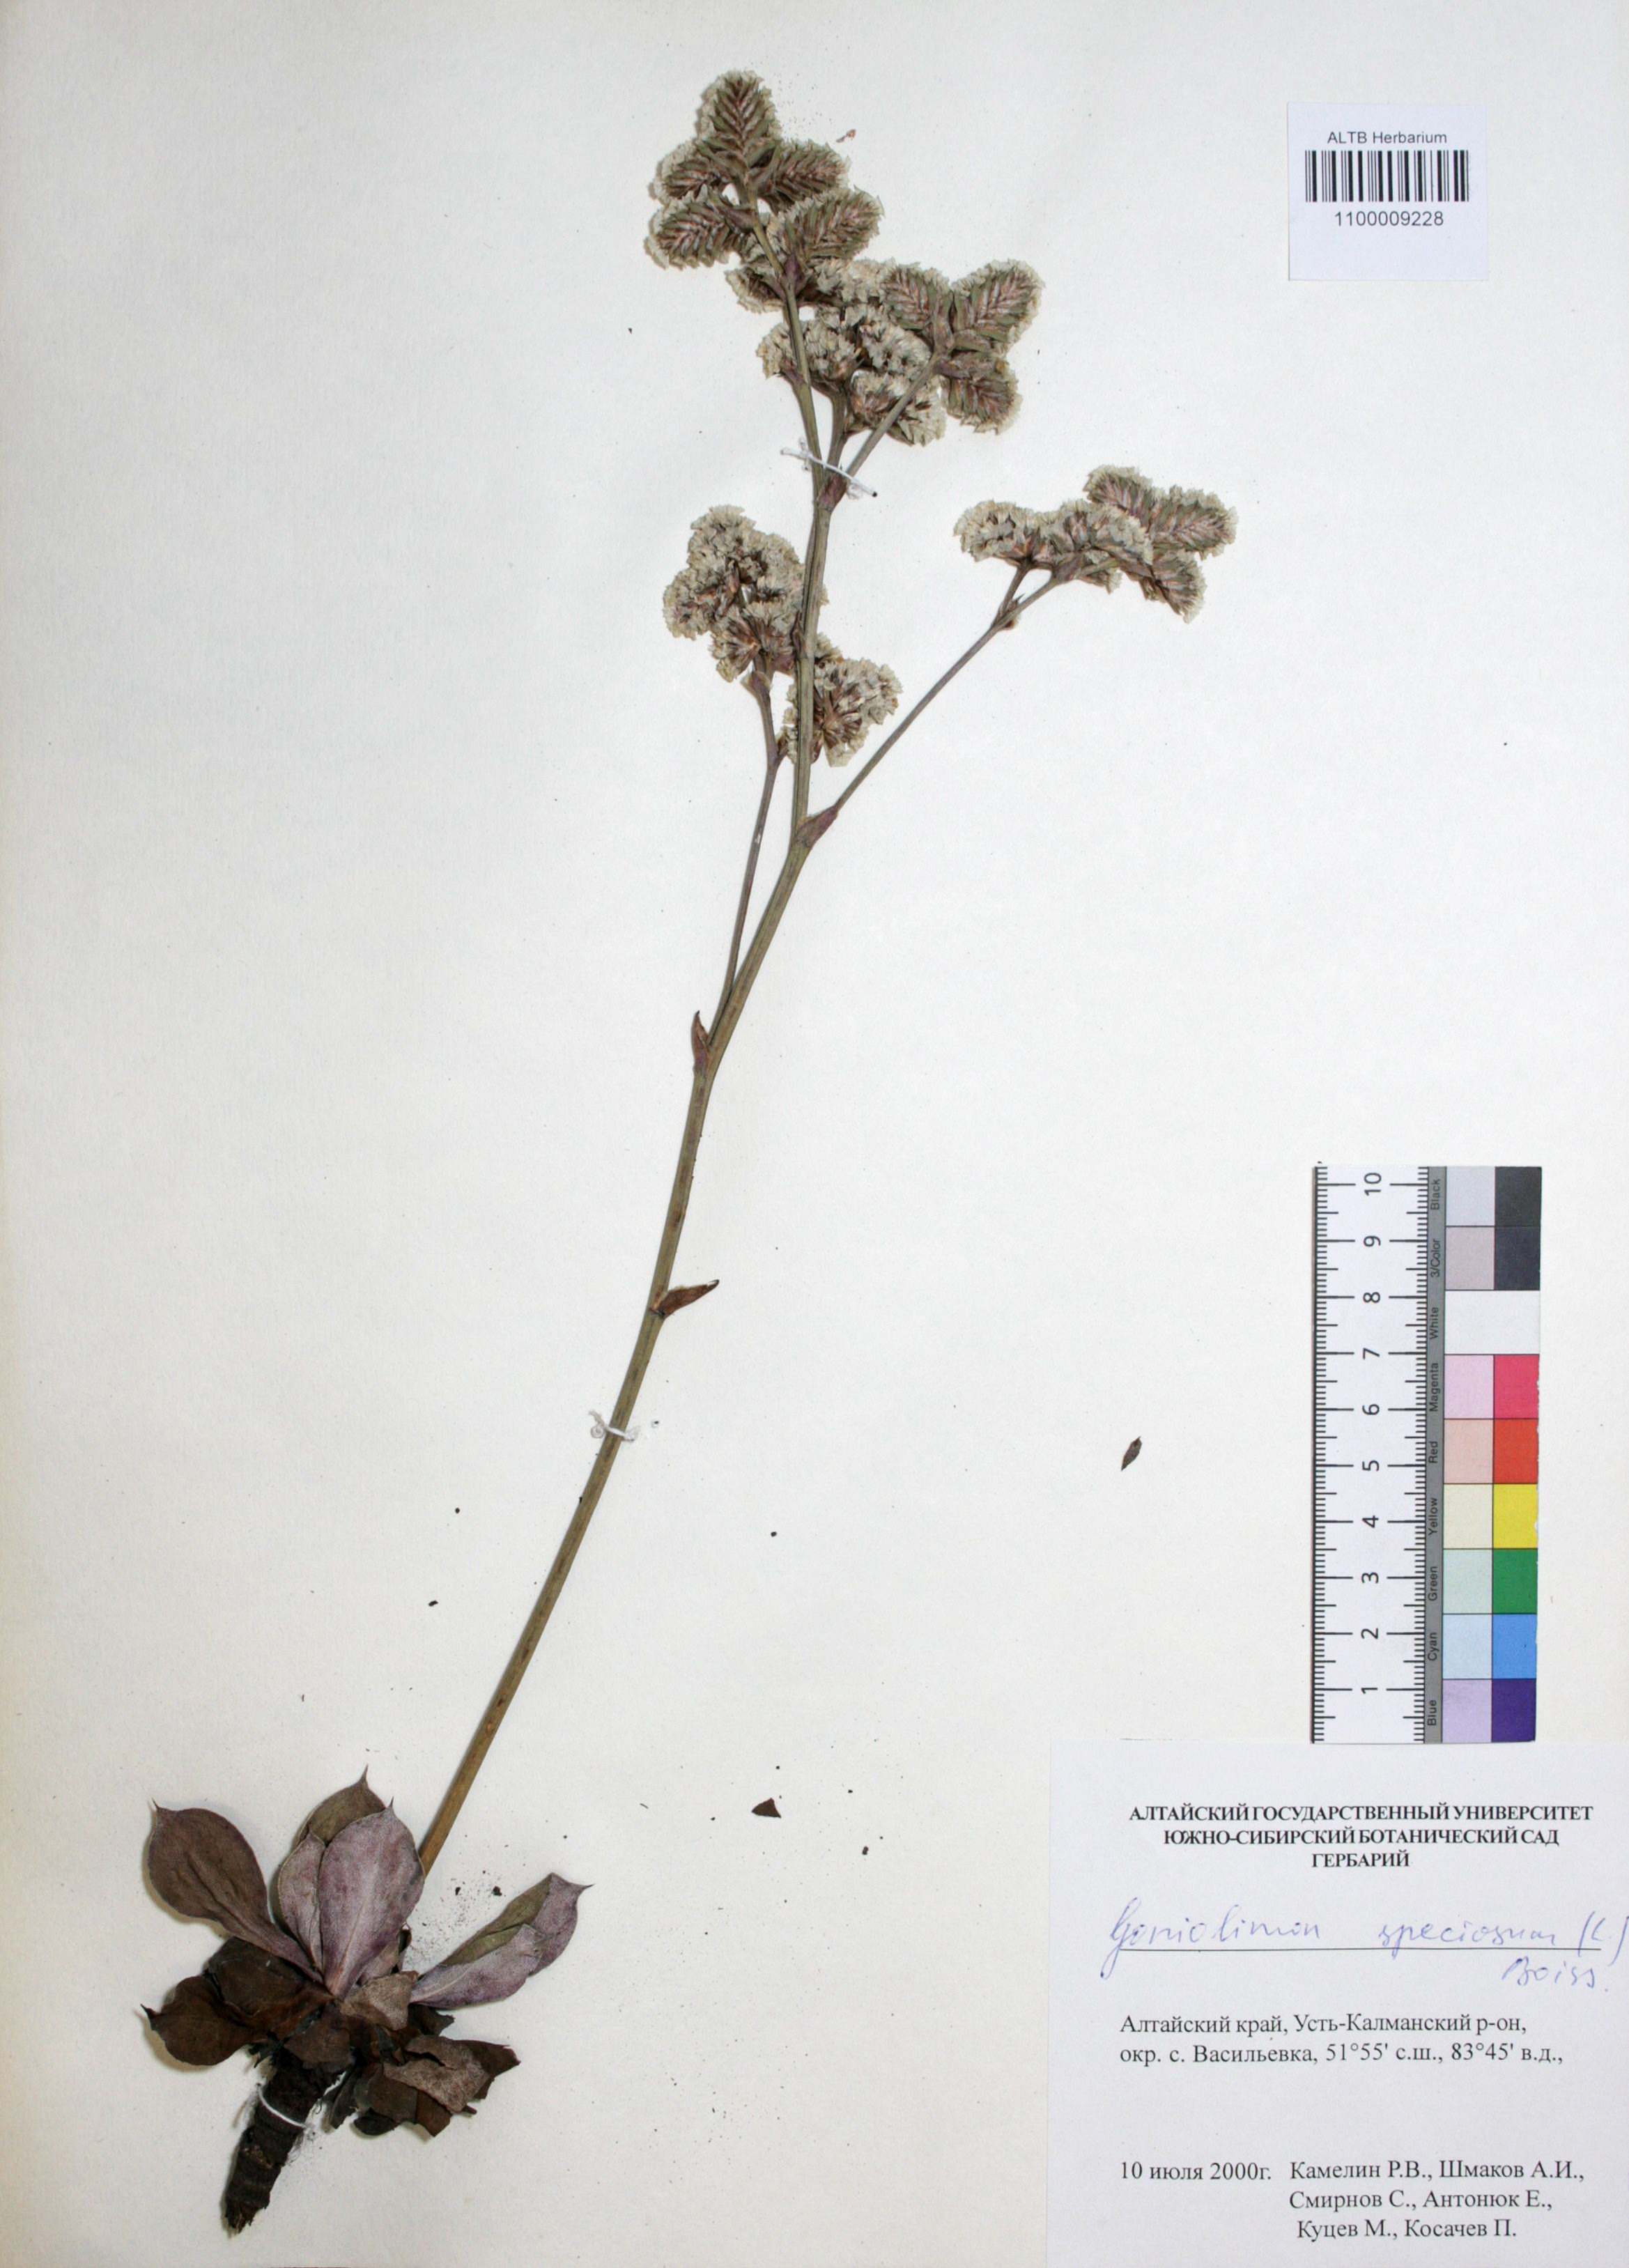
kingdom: Plantae
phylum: Tracheophyta
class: Magnoliopsida
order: Caryophyllales
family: Plumbaginaceae
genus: Goniolimon
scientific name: Goniolimon speciosum
